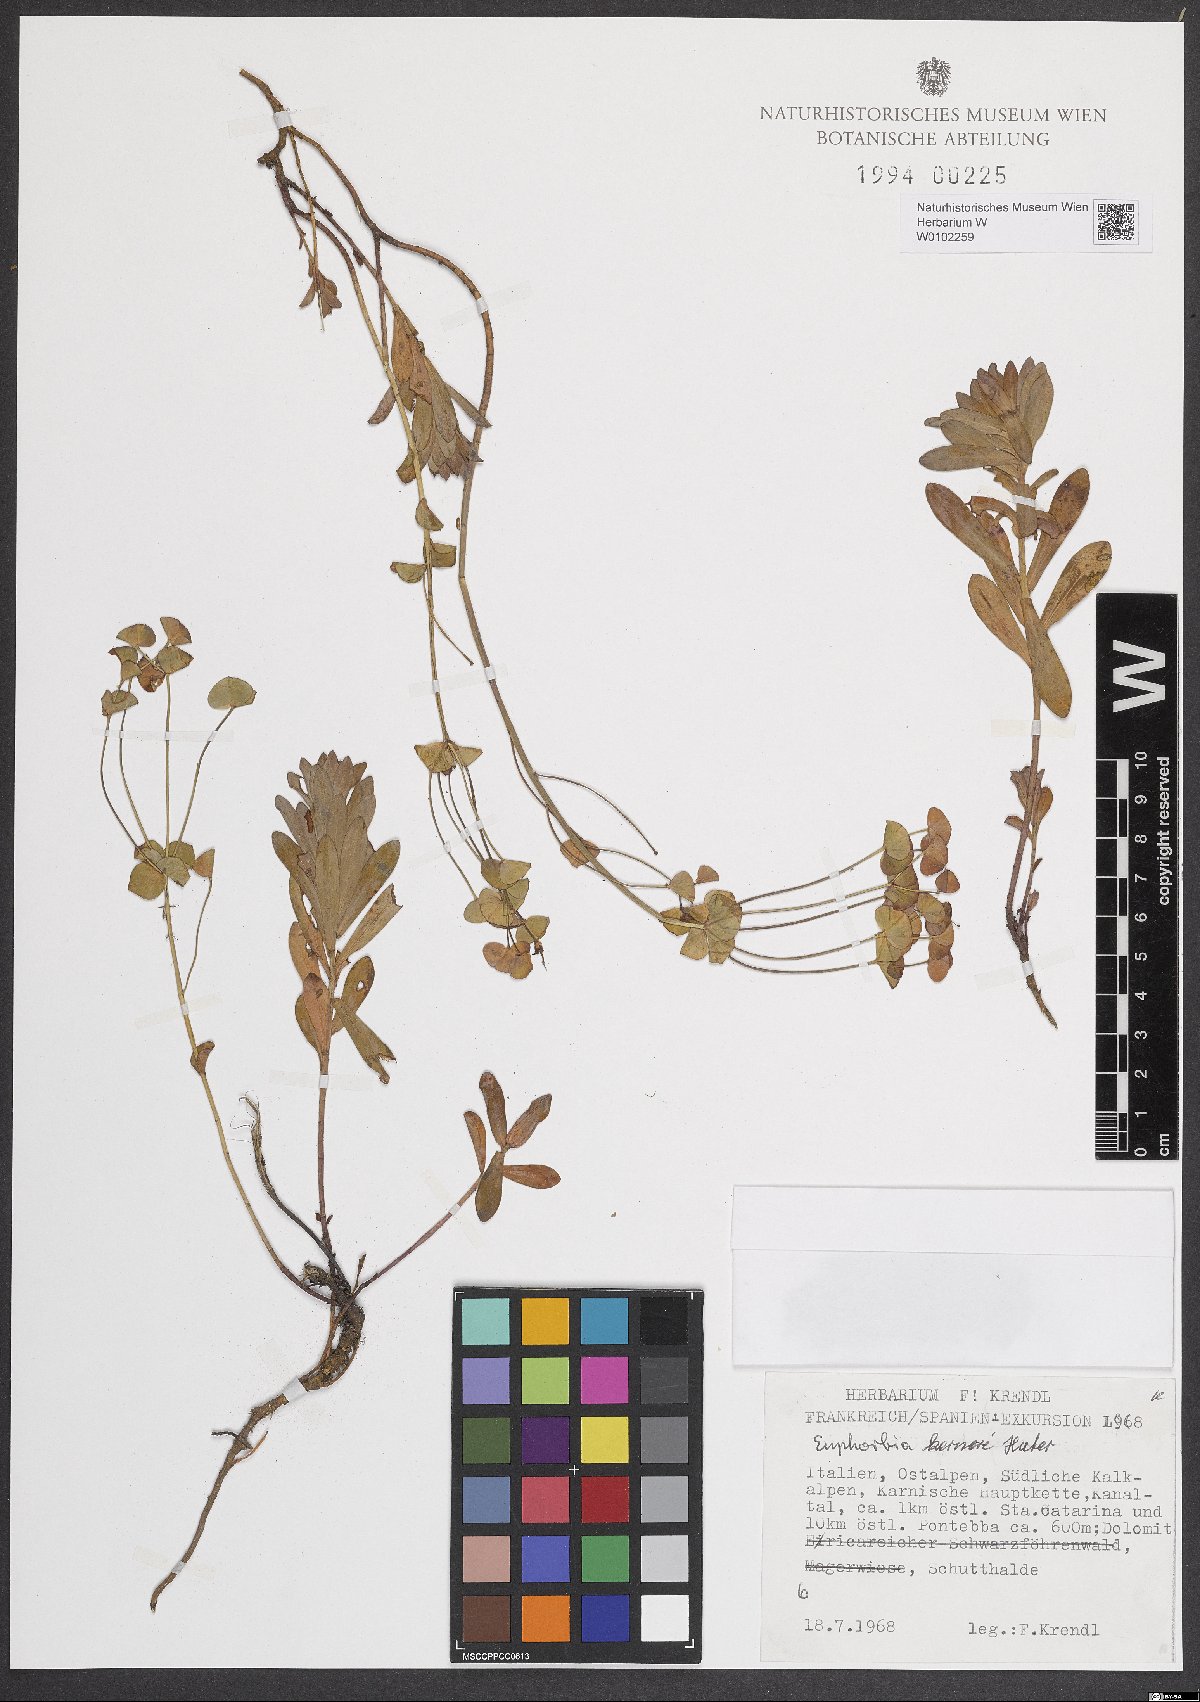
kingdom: Plantae
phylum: Tracheophyta
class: Magnoliopsida
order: Malpighiales
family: Euphorbiaceae
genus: Euphorbia
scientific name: Euphorbia kerneri
